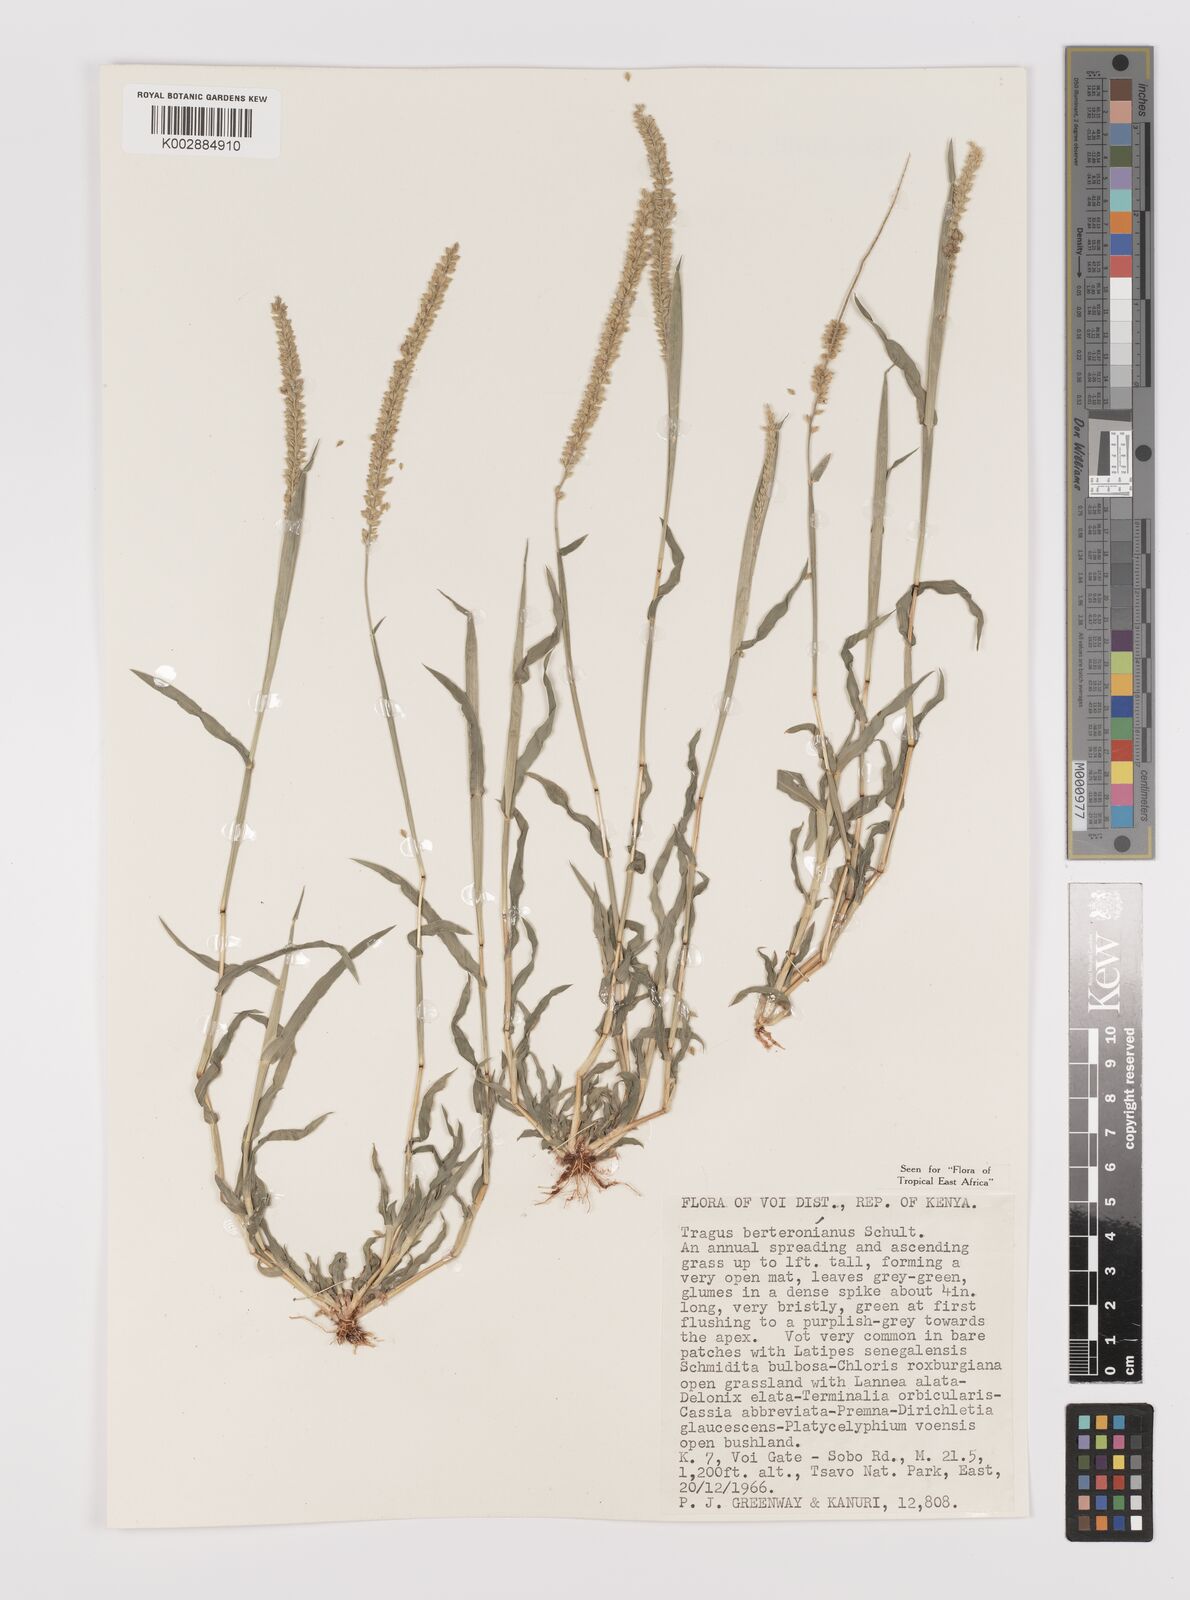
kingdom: Plantae
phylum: Tracheophyta
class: Liliopsida
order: Poales
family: Poaceae
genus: Tragus
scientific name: Tragus berteronianus
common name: African bur-grass
